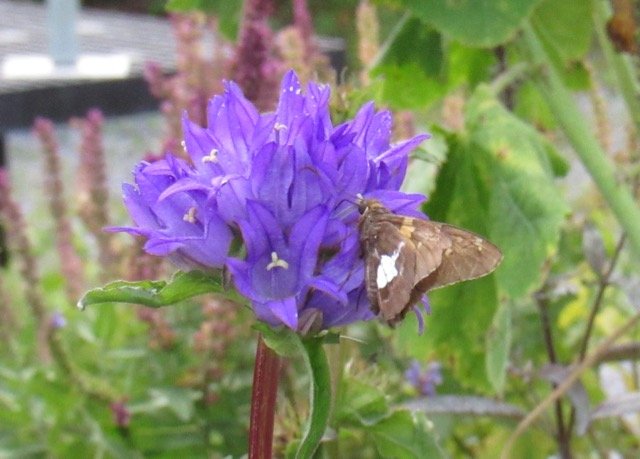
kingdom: Animalia
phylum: Arthropoda
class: Insecta
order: Lepidoptera
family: Hesperiidae
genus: Epargyreus
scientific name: Epargyreus clarus
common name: Silver-spotted Skipper
